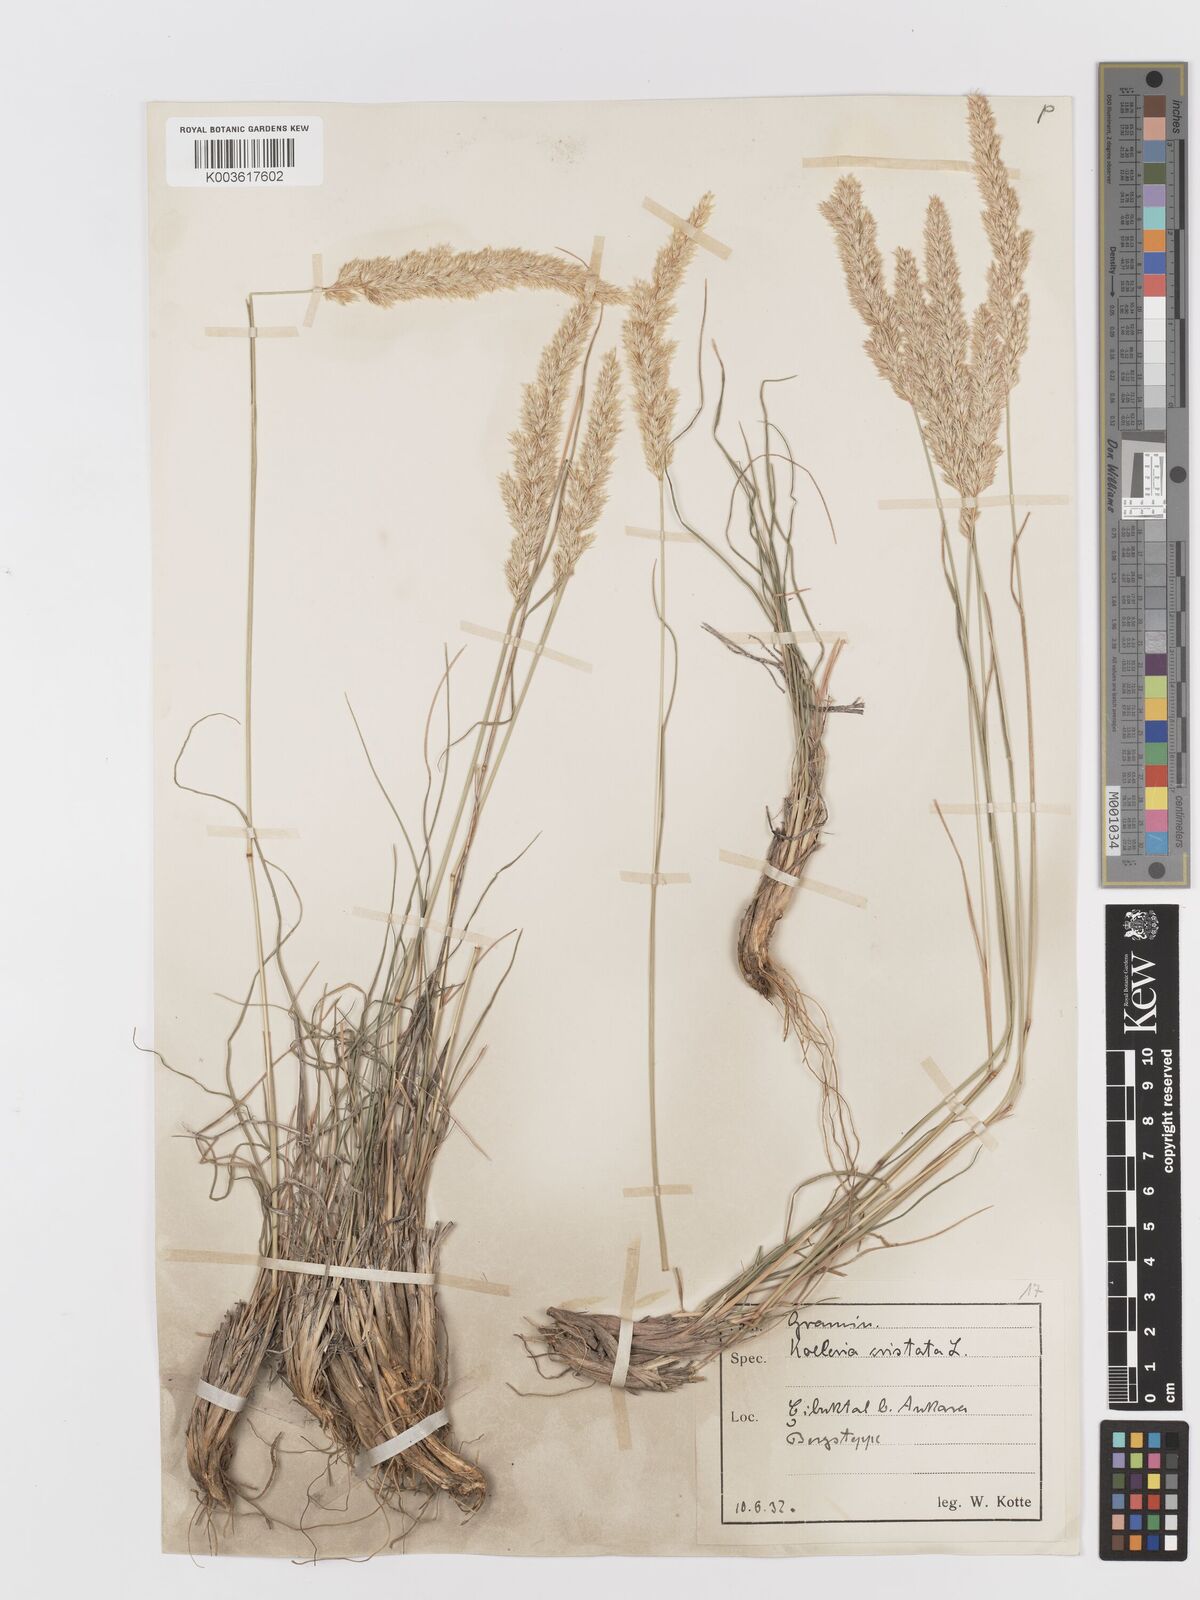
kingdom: Plantae
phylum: Tracheophyta
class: Liliopsida
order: Poales
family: Poaceae
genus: Koeleria
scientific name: Koeleria macrantha
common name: Crested hair-grass
